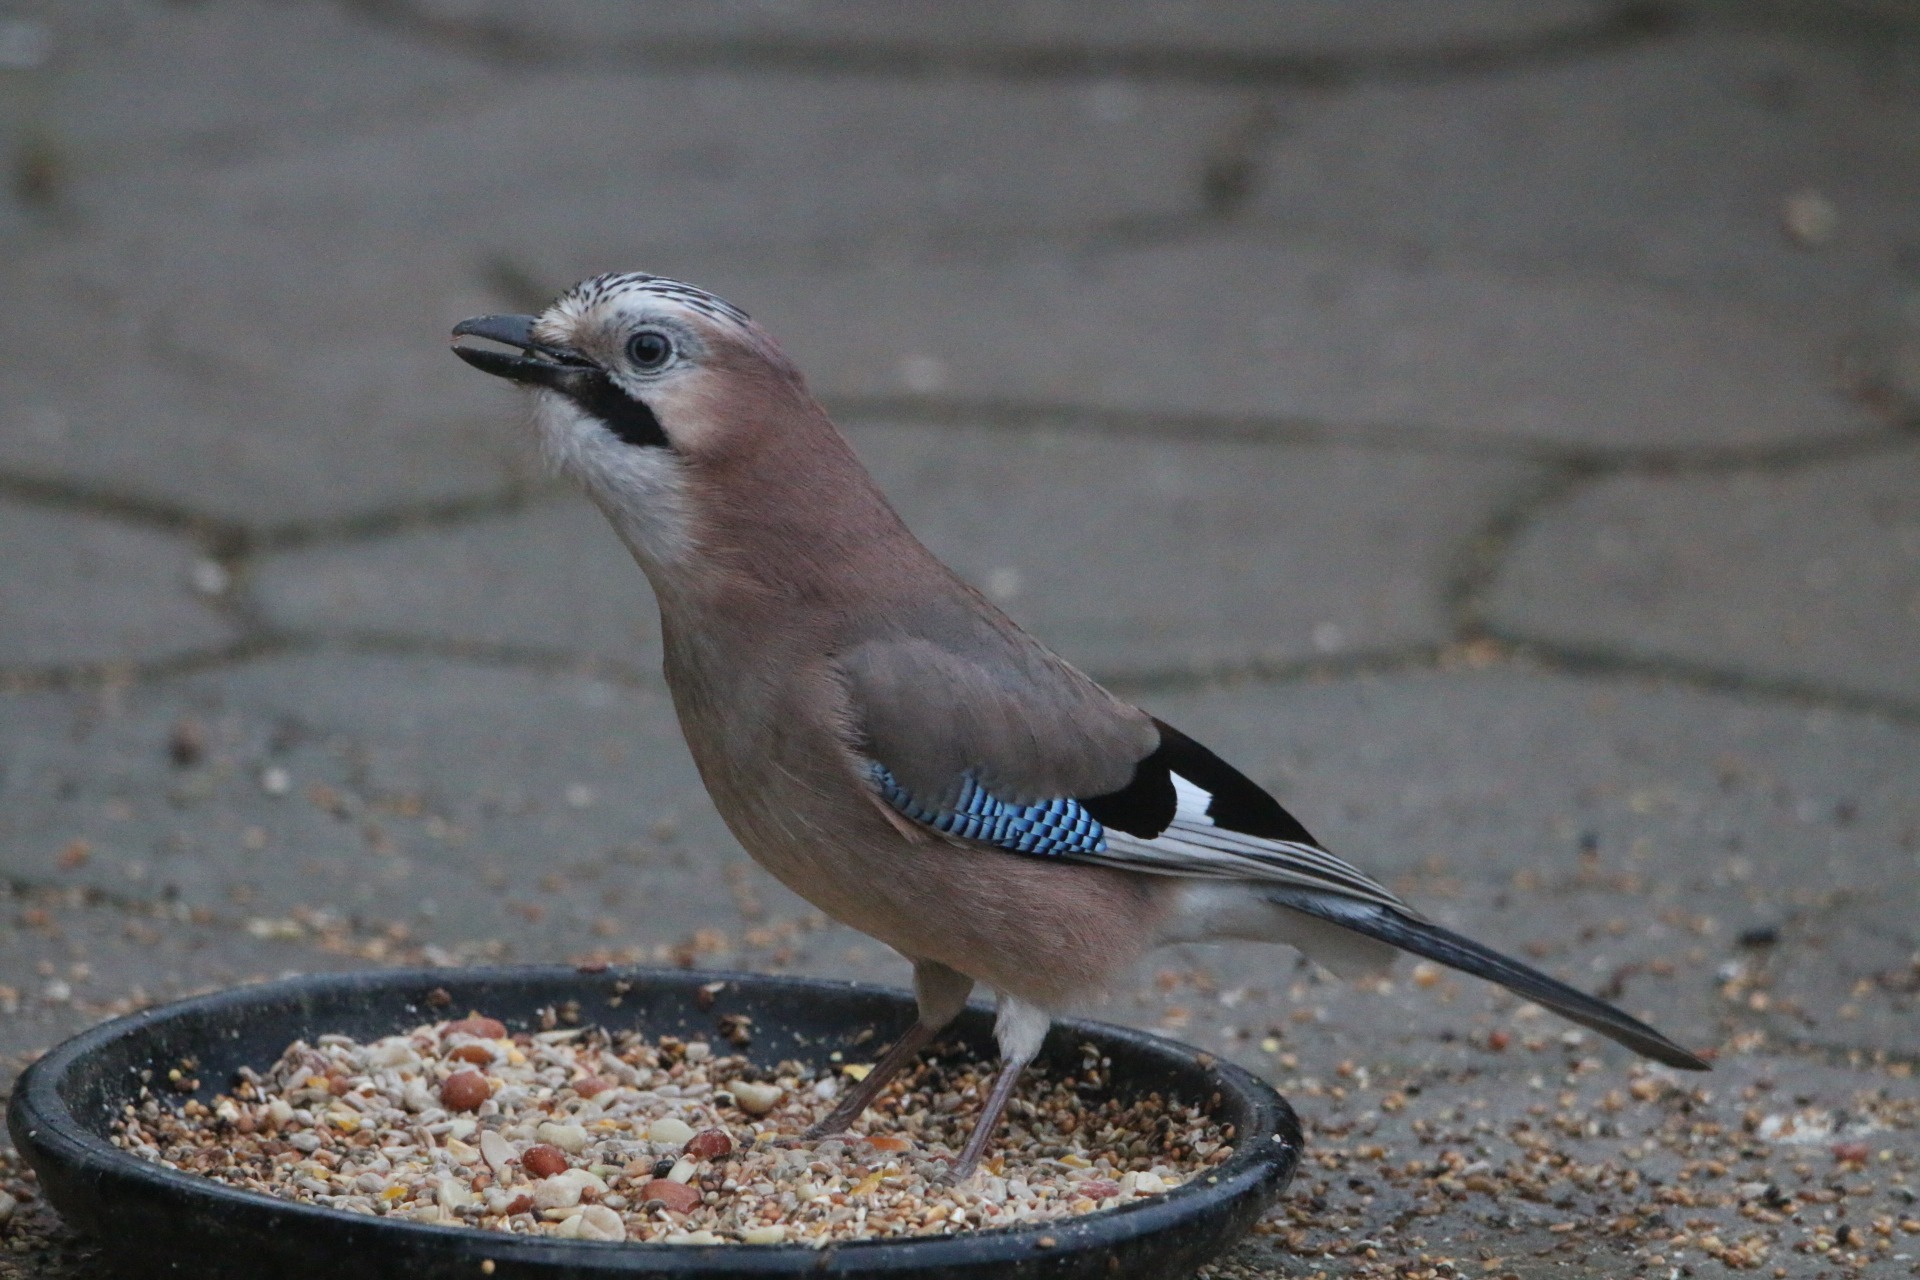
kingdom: Animalia
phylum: Chordata
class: Aves
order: Passeriformes
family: Corvidae
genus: Garrulus
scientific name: Garrulus glandarius
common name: Skovskade
